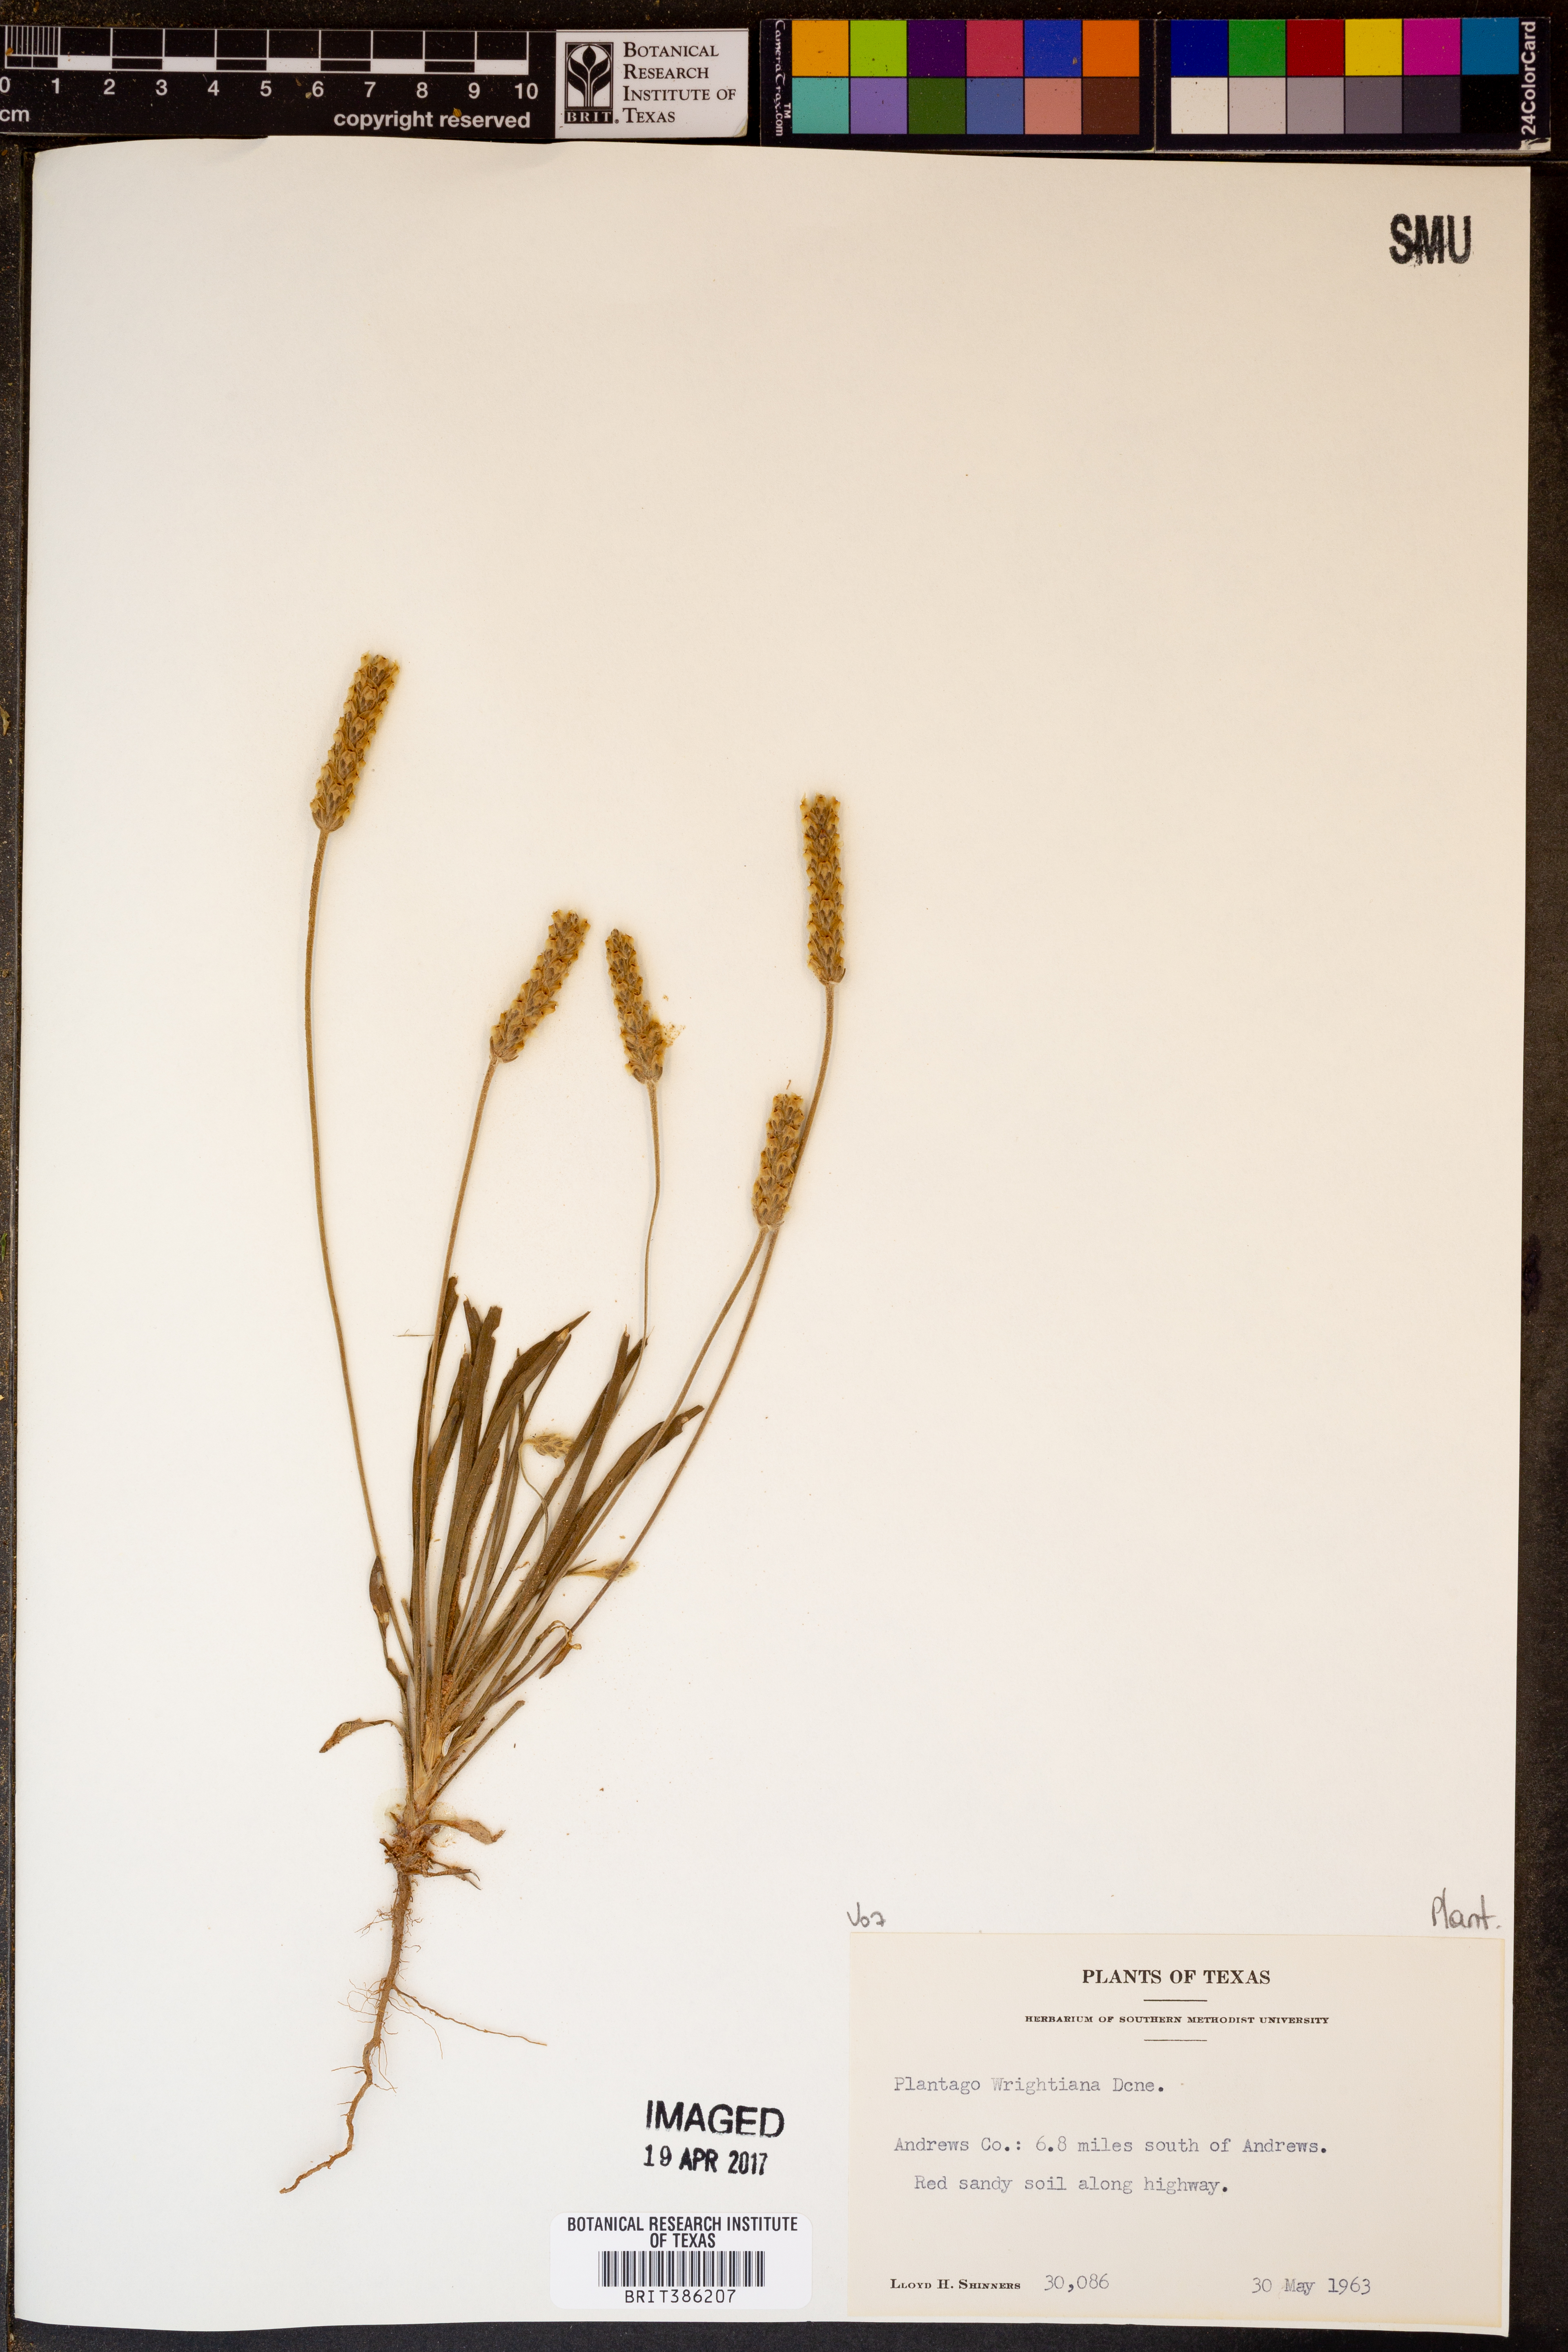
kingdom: Plantae
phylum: Tracheophyta
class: Magnoliopsida
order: Lamiales
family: Plantaginaceae
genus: Plantago
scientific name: Plantago wrightiana
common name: Wright's plantain
